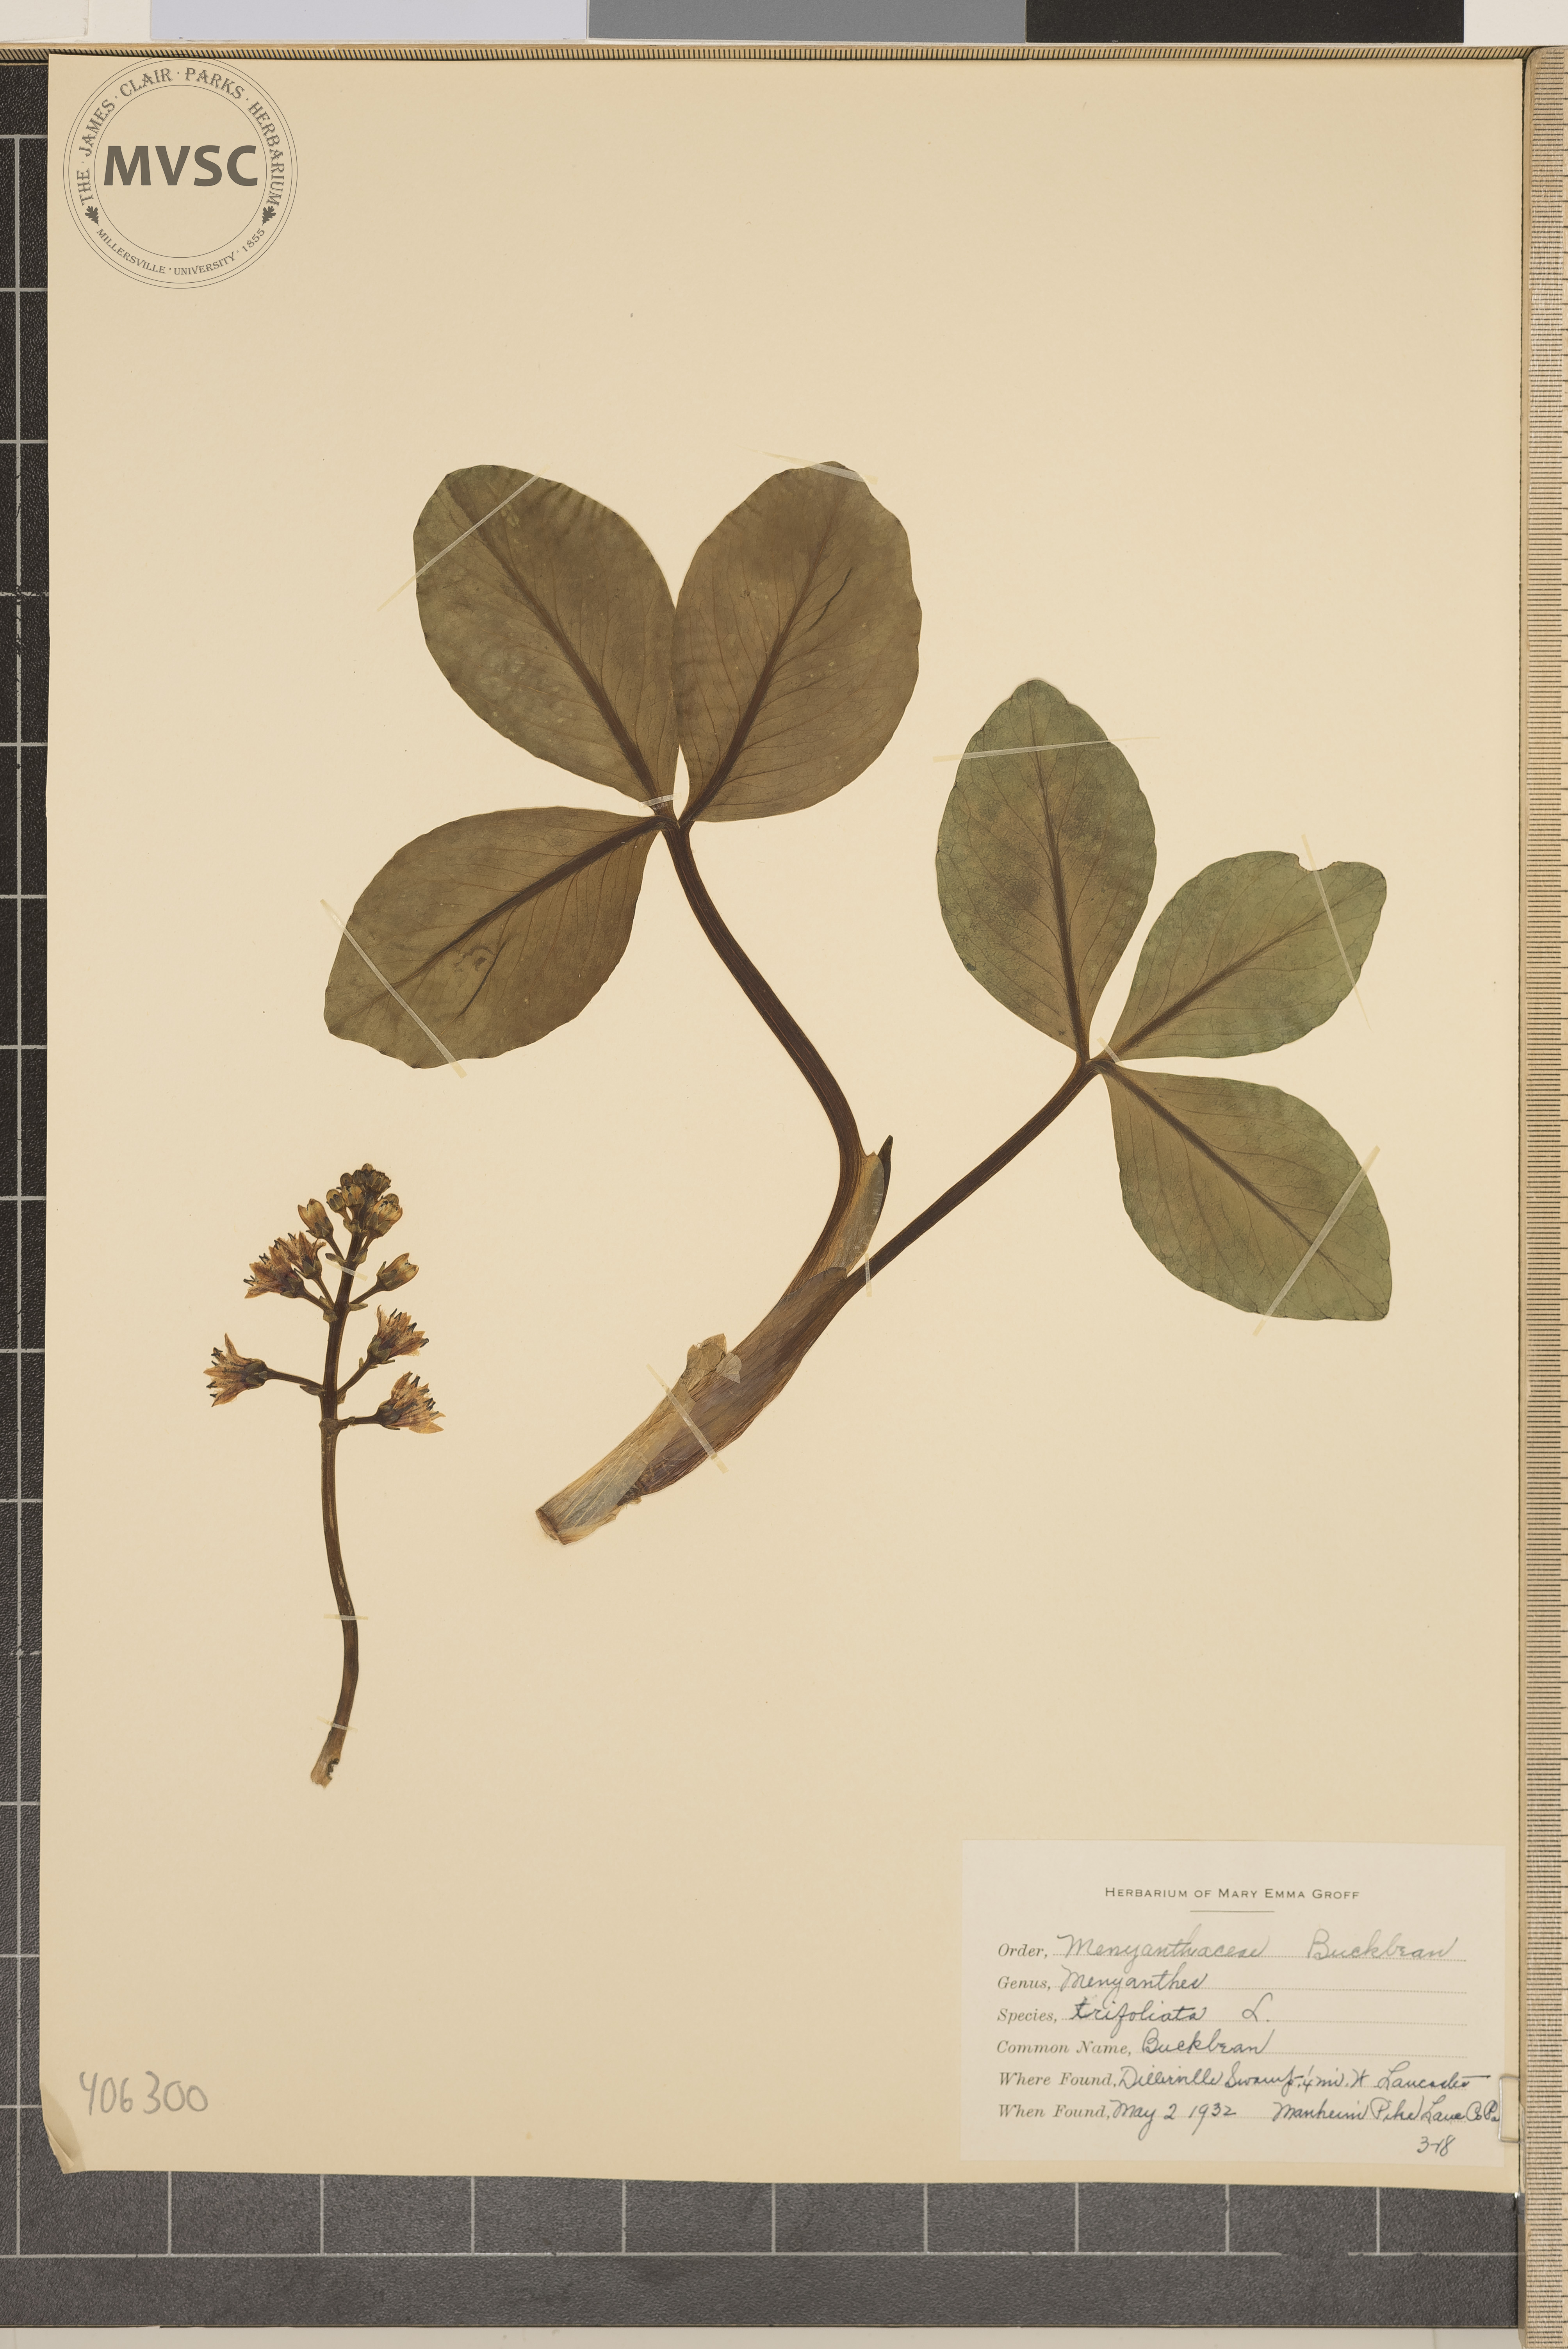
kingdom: Plantae
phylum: Tracheophyta
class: Magnoliopsida
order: Asterales
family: Menyanthaceae
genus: Menyanthes
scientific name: Menyanthes trifoliata
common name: Buckbean
